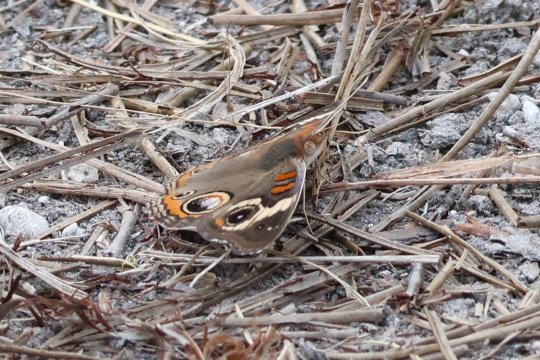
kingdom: Animalia
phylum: Arthropoda
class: Insecta
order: Lepidoptera
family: Nymphalidae
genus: Junonia
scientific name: Junonia coenia
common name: Common Buckeye
